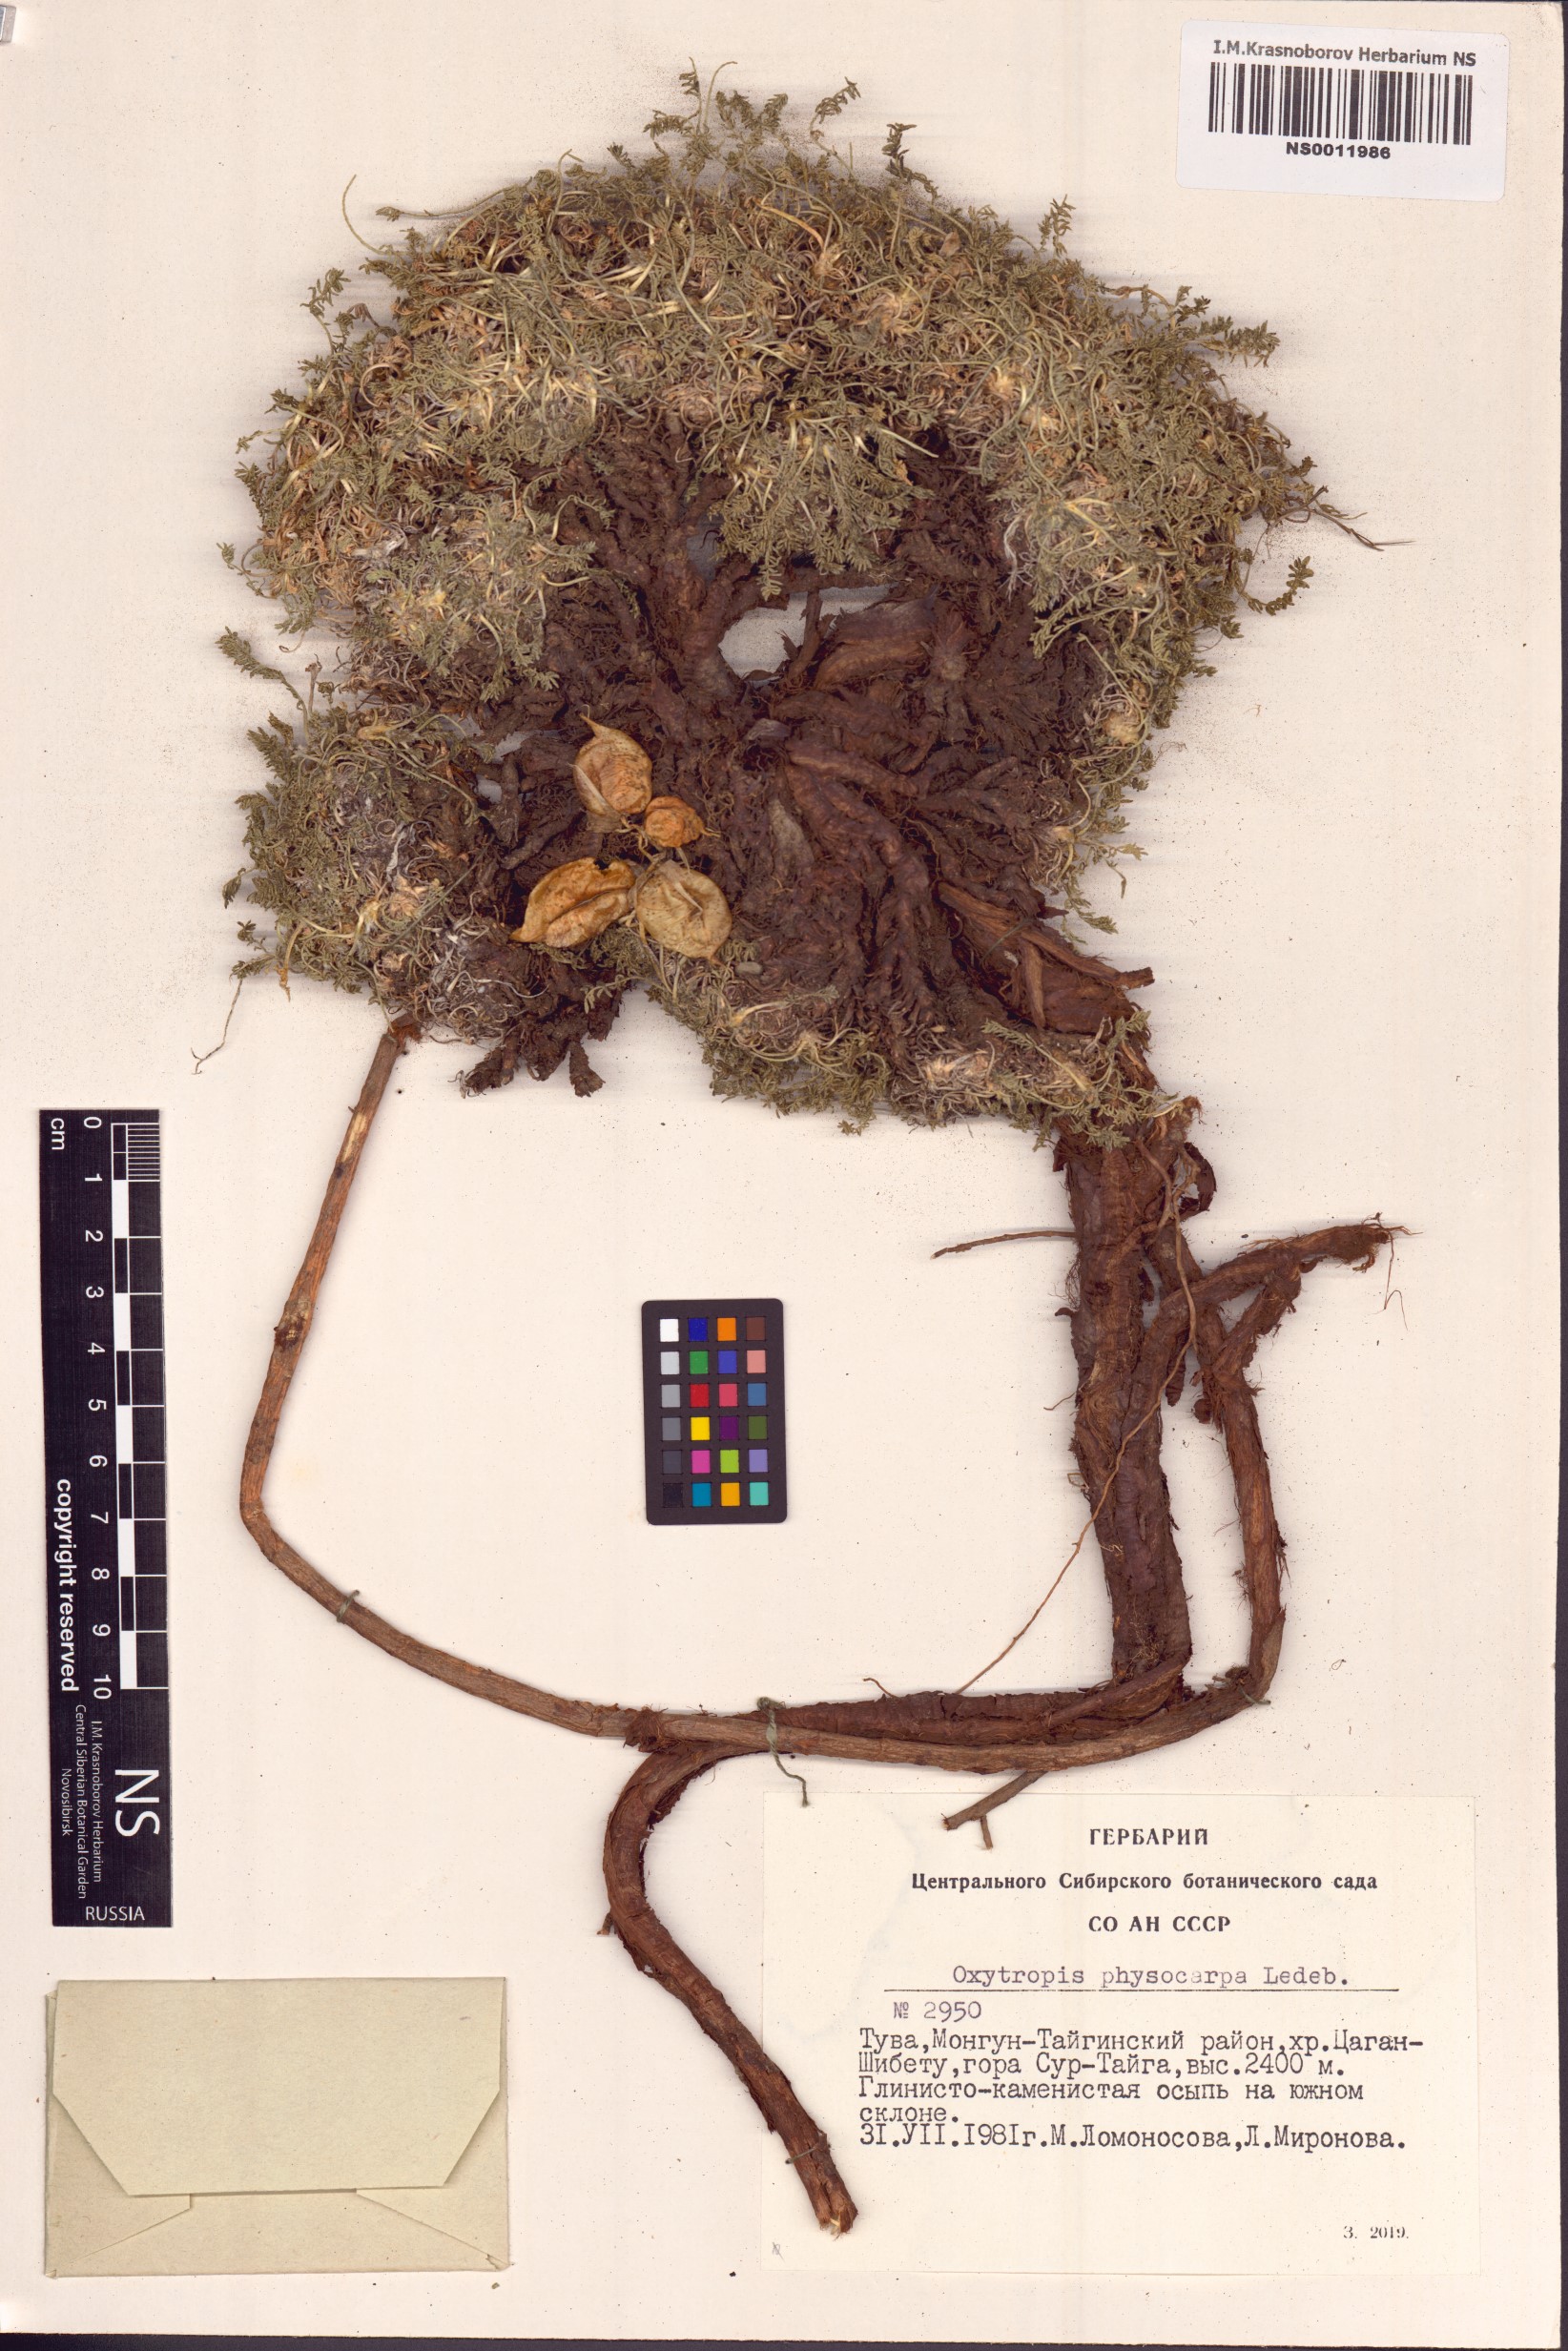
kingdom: Plantae
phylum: Tracheophyta
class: Magnoliopsida
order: Fabales
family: Fabaceae
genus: Oxytropis
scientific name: Oxytropis physocarpa
